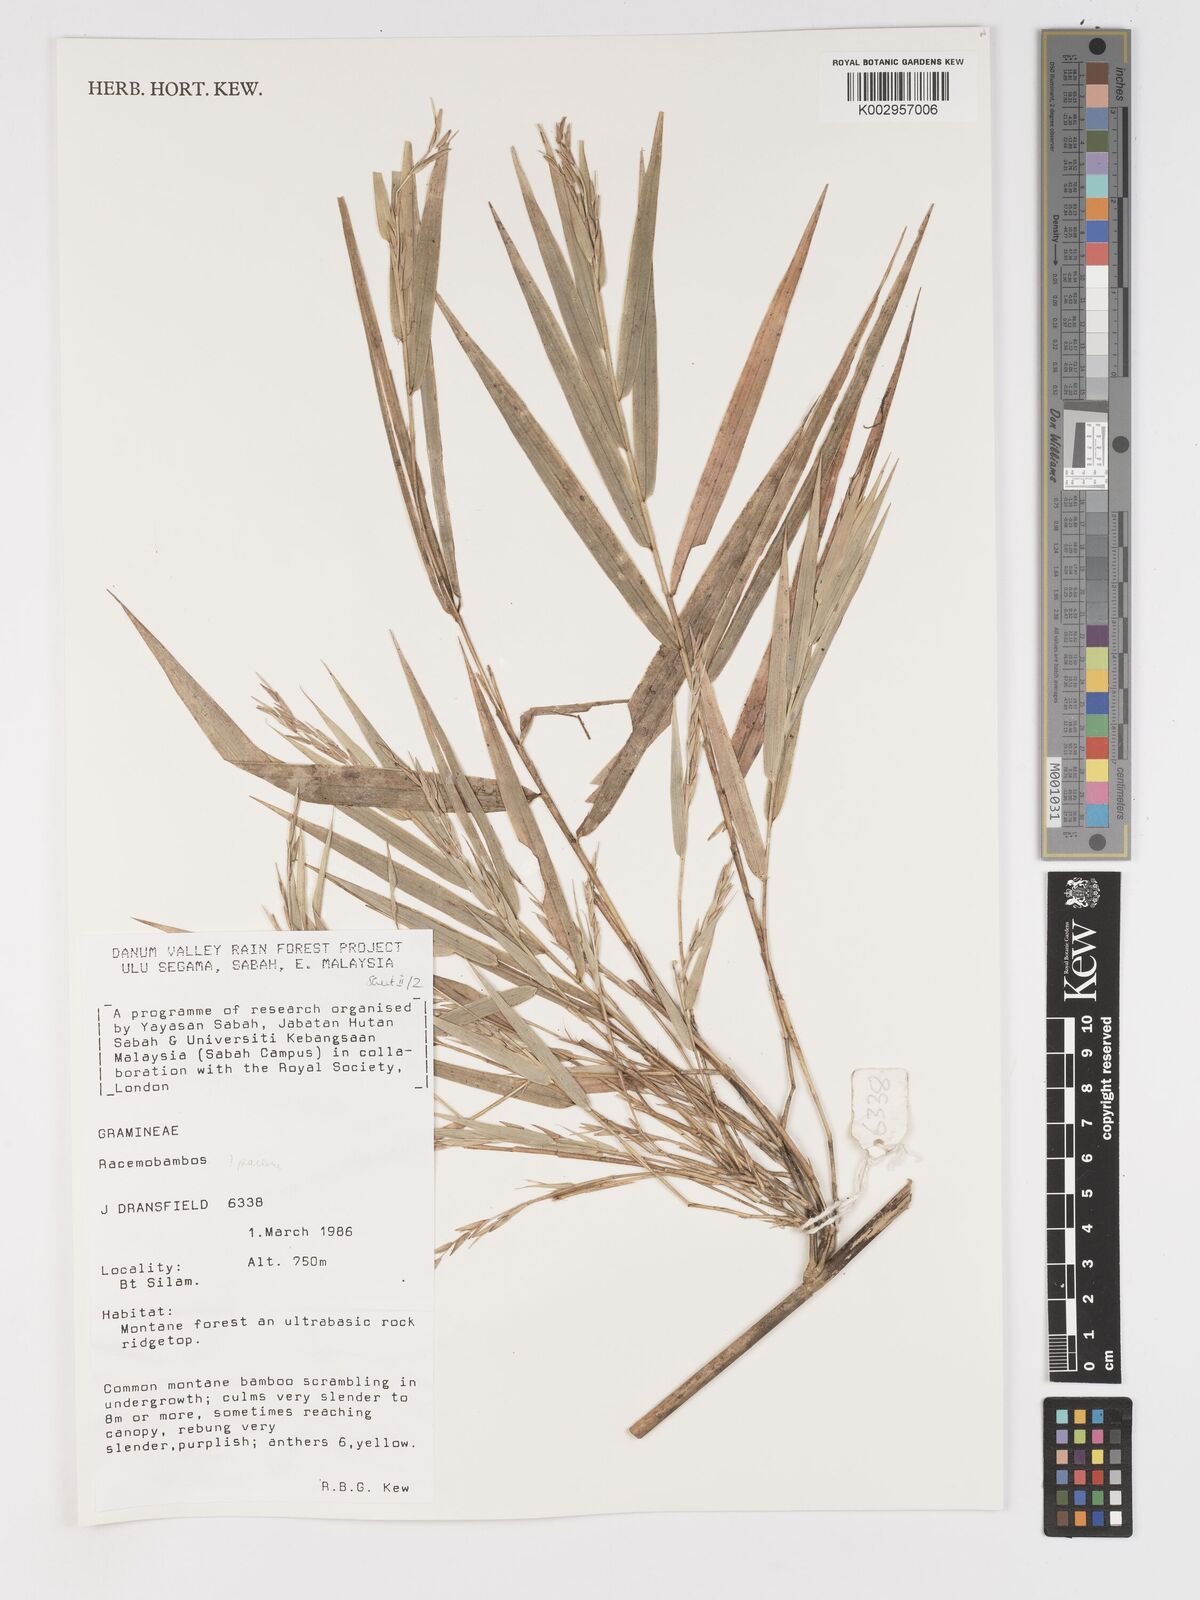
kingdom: Plantae
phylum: Tracheophyta
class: Liliopsida
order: Poales
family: Poaceae
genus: Racemobambos
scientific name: Racemobambos
